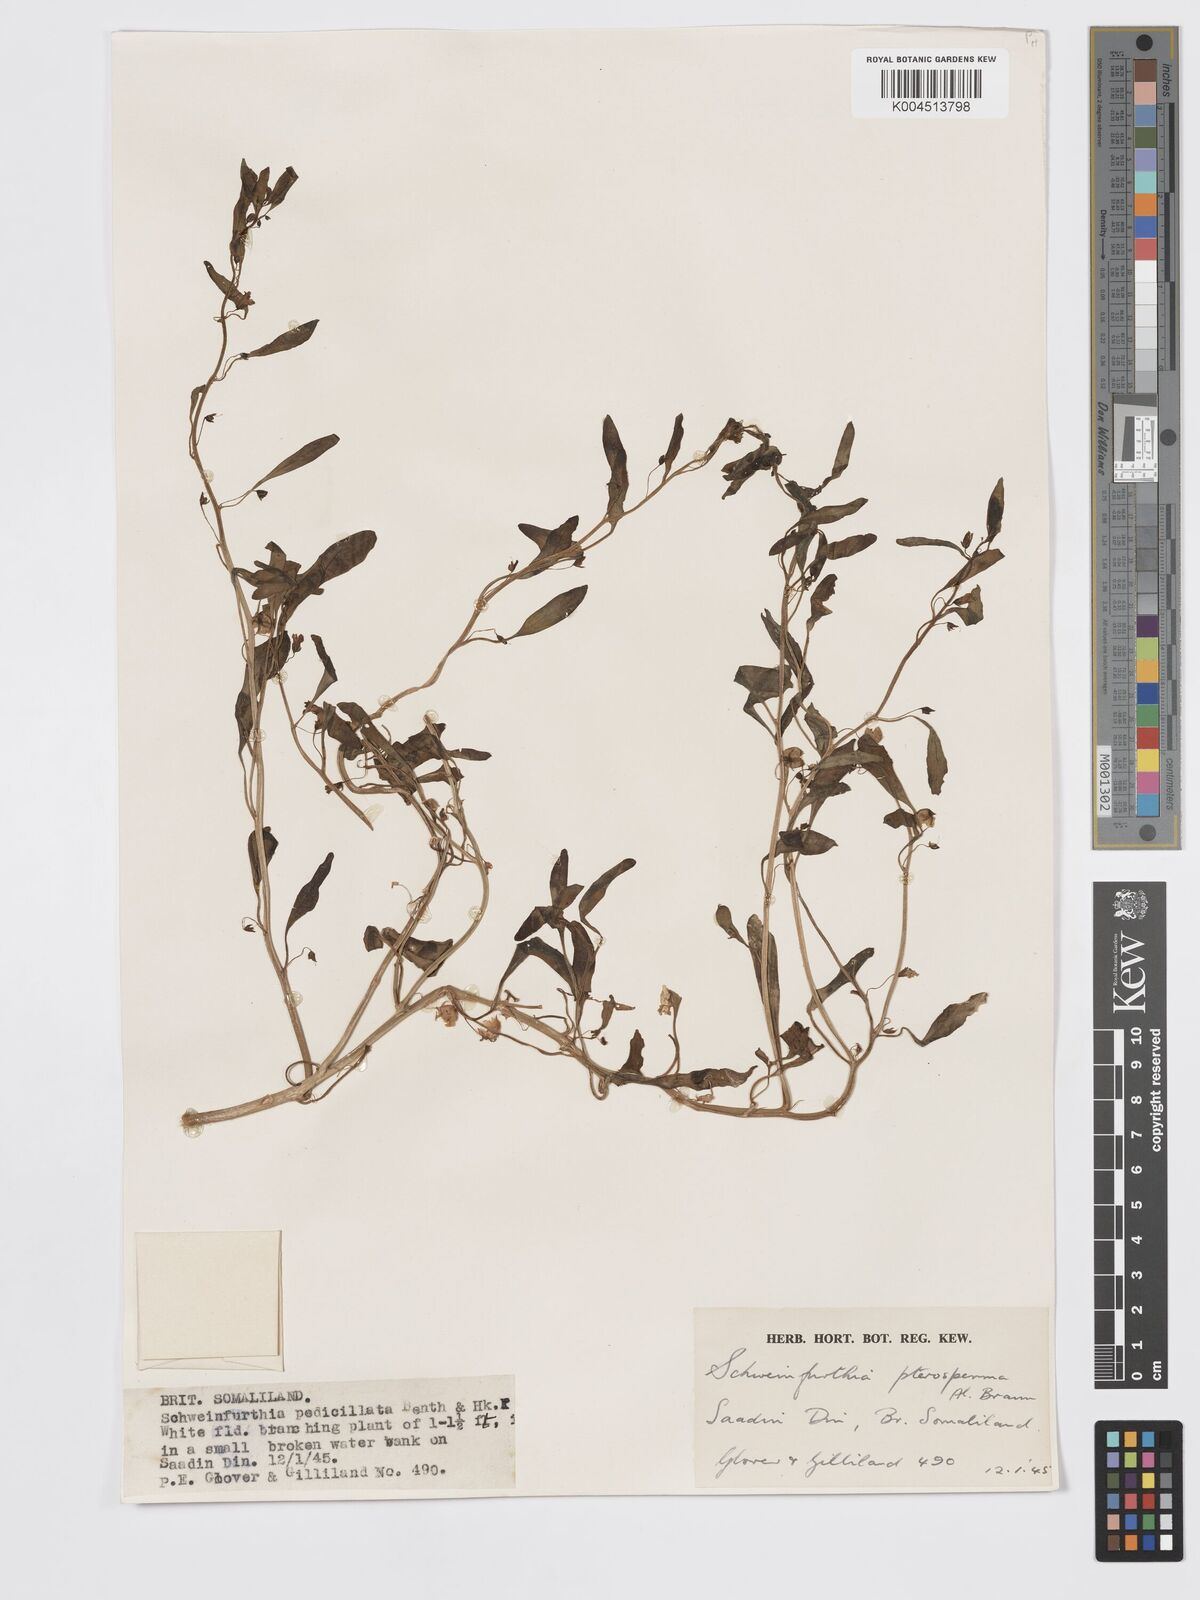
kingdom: Plantae
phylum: Tracheophyta
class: Magnoliopsida
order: Lamiales
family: Plantaginaceae
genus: Schweinfurthia
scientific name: Schweinfurthia pterosperma
